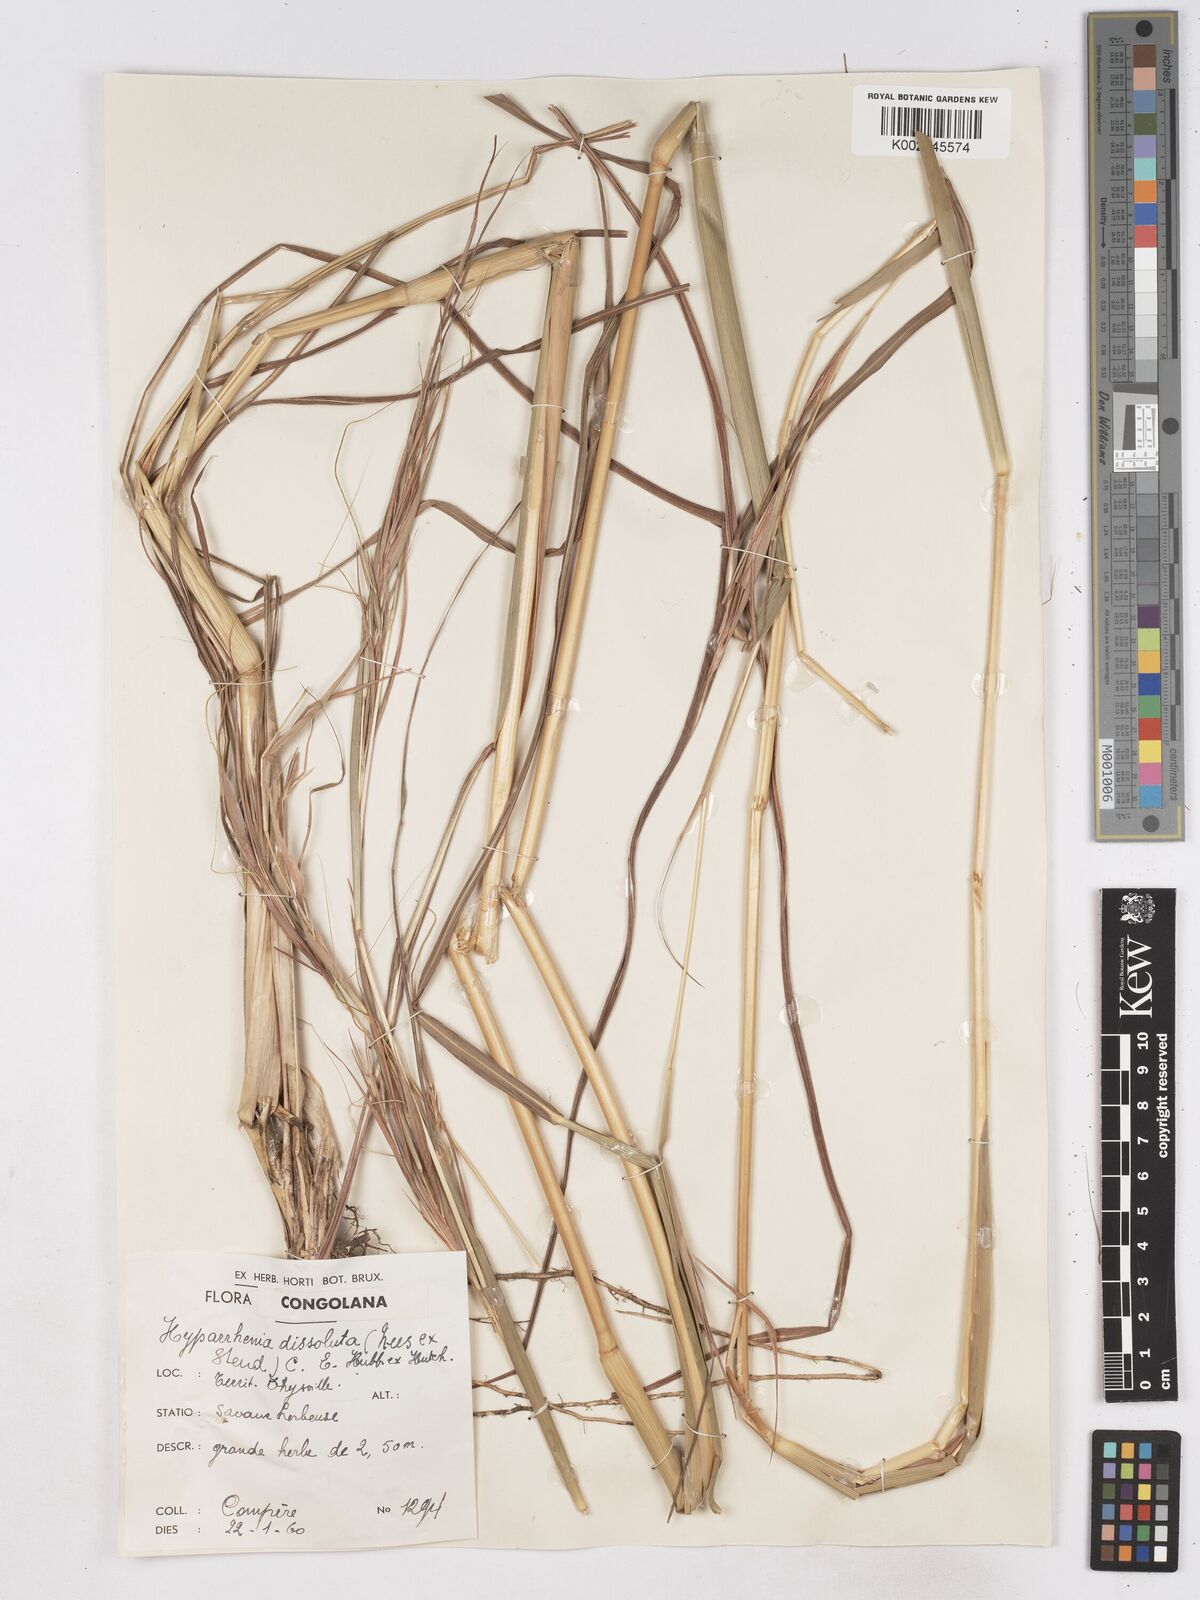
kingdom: Plantae
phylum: Tracheophyta
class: Liliopsida
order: Poales
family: Poaceae
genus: Hyperthelia
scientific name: Hyperthelia dissoluta
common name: Yellow thatching grass
